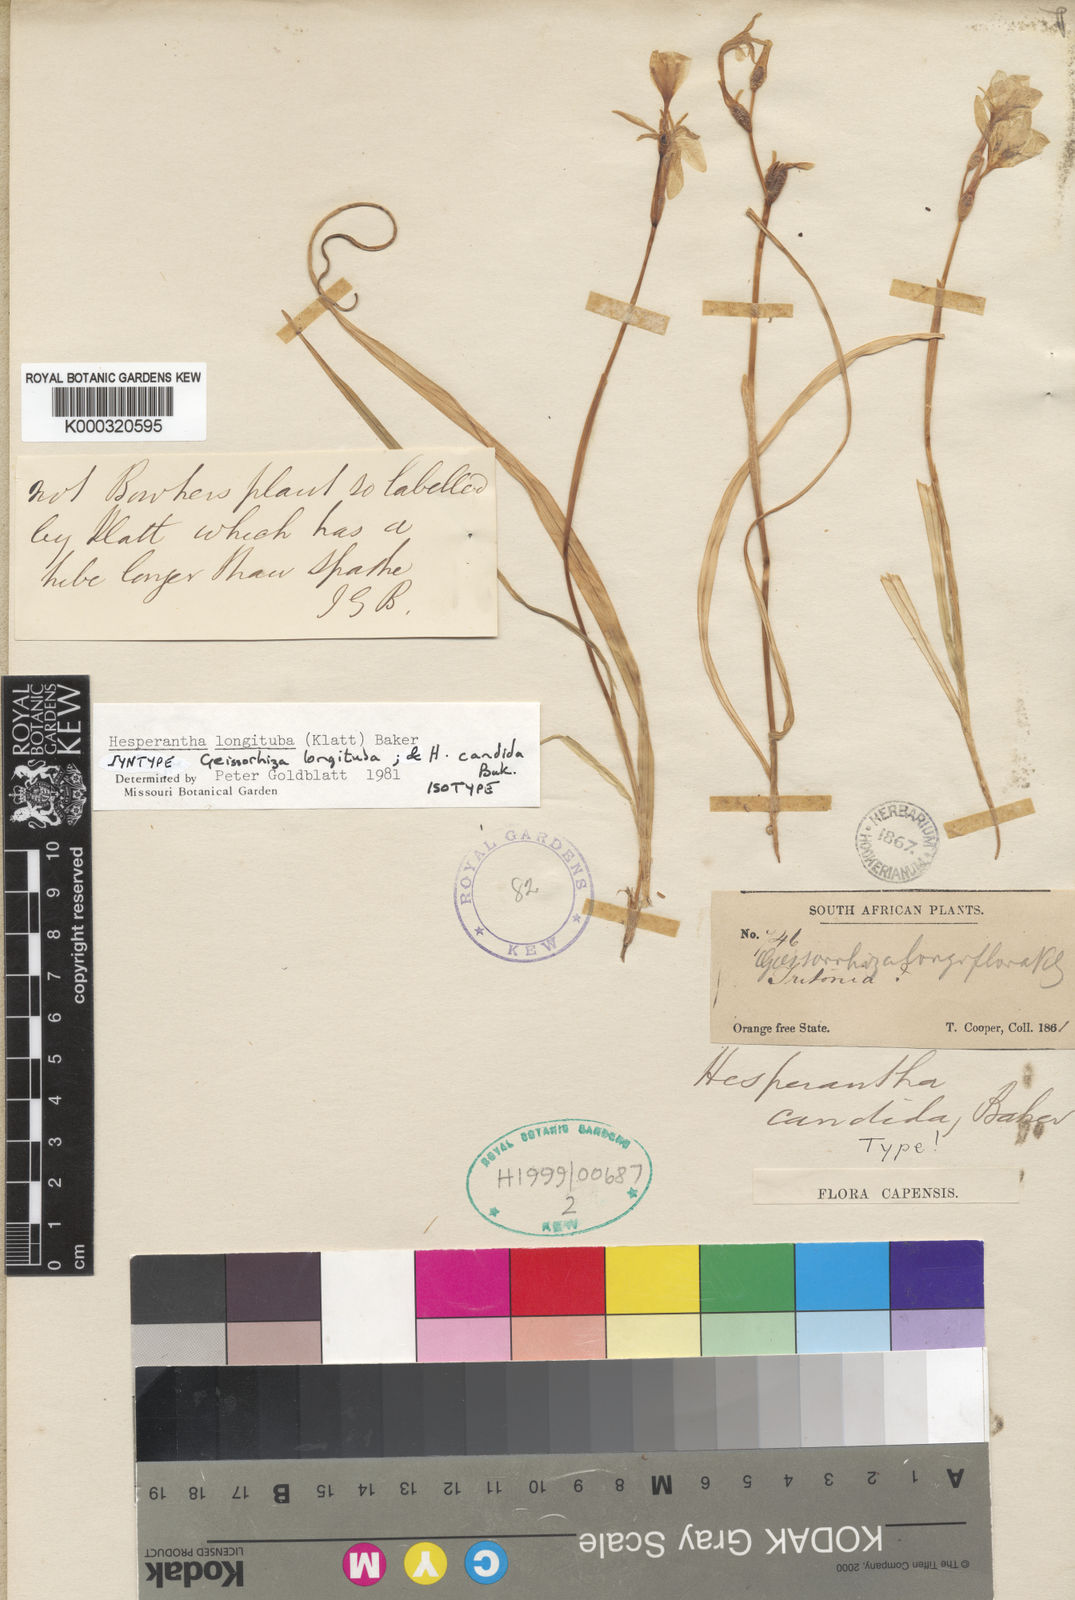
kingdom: Plantae
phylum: Tracheophyta
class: Liliopsida
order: Asparagales
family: Iridaceae
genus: Hesperantha
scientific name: Hesperantha candida
